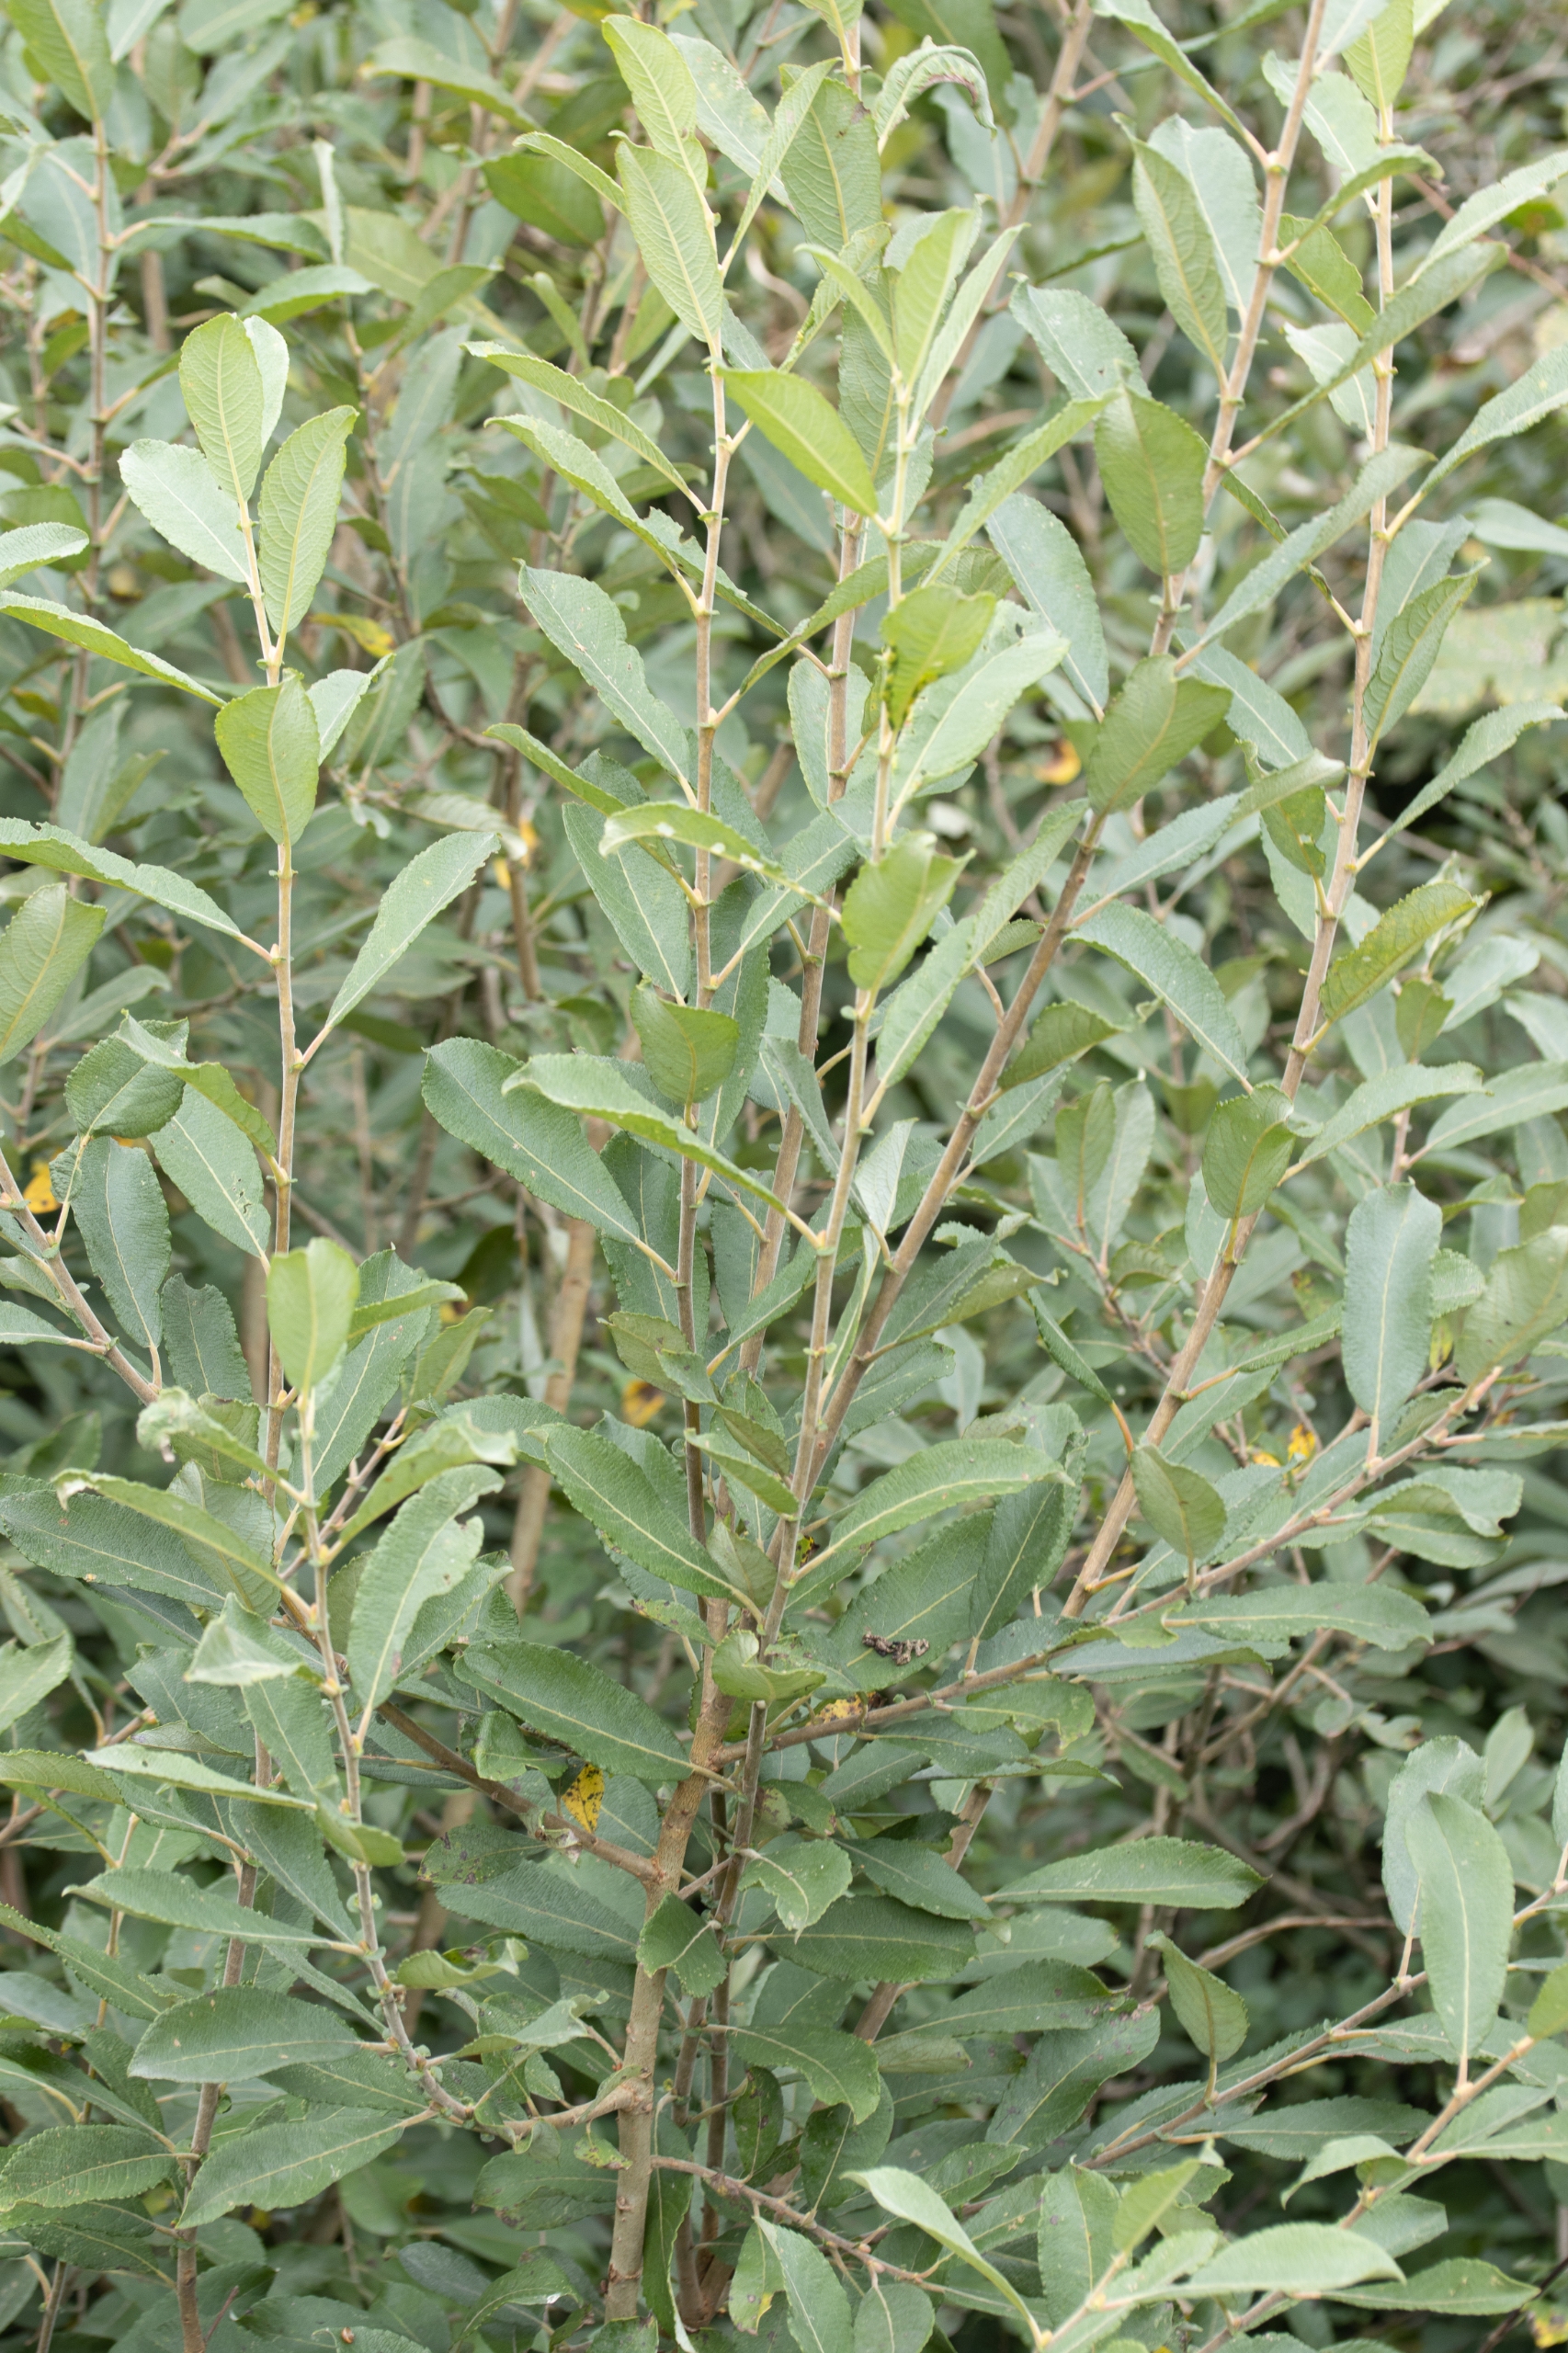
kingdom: Plantae
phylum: Tracheophyta
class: Magnoliopsida
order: Malpighiales
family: Salicaceae
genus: Salix
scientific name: Salix cinerea
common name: Grå-pil
